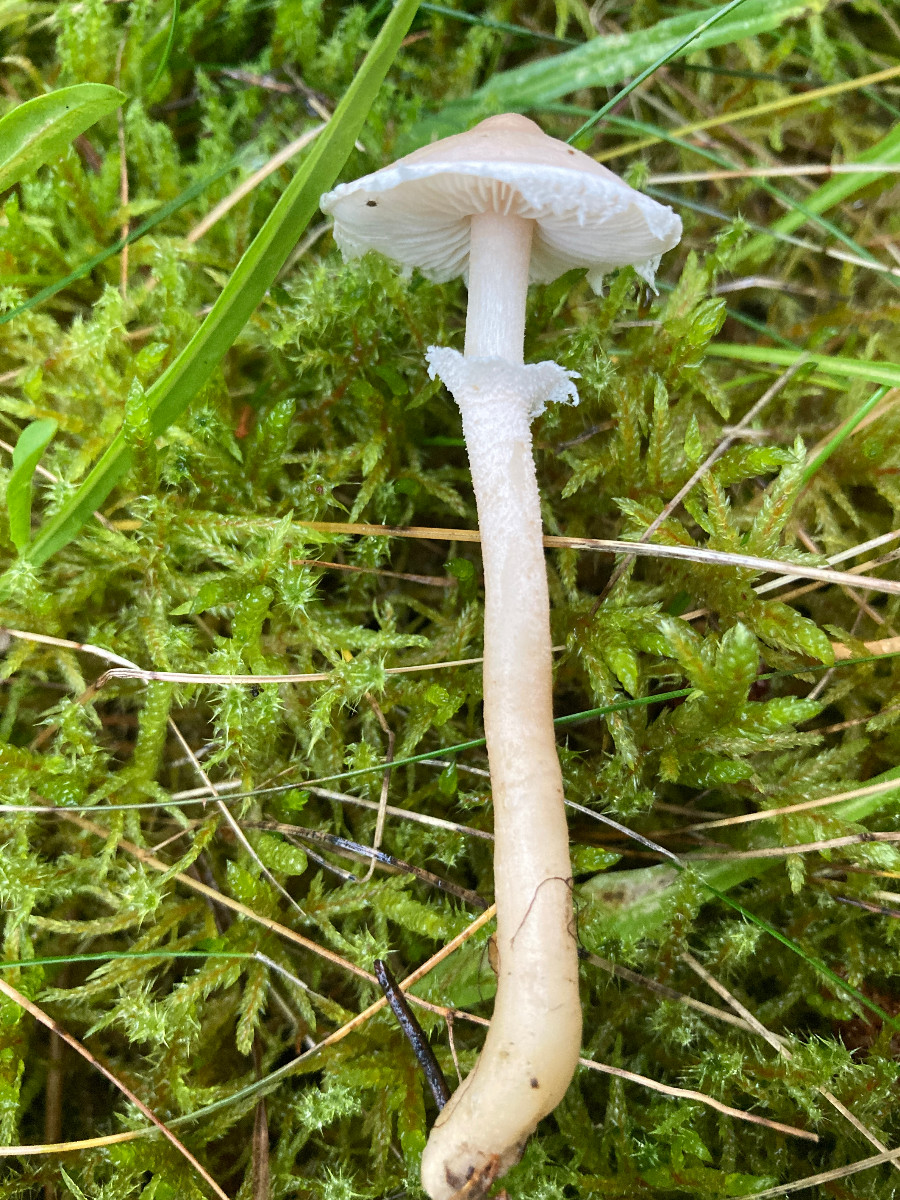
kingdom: Fungi
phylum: Basidiomycota
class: Agaricomycetes
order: Agaricales
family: Tricholomataceae
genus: Cystoderma
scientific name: Cystoderma carcharias
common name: rødgrå grynhat
